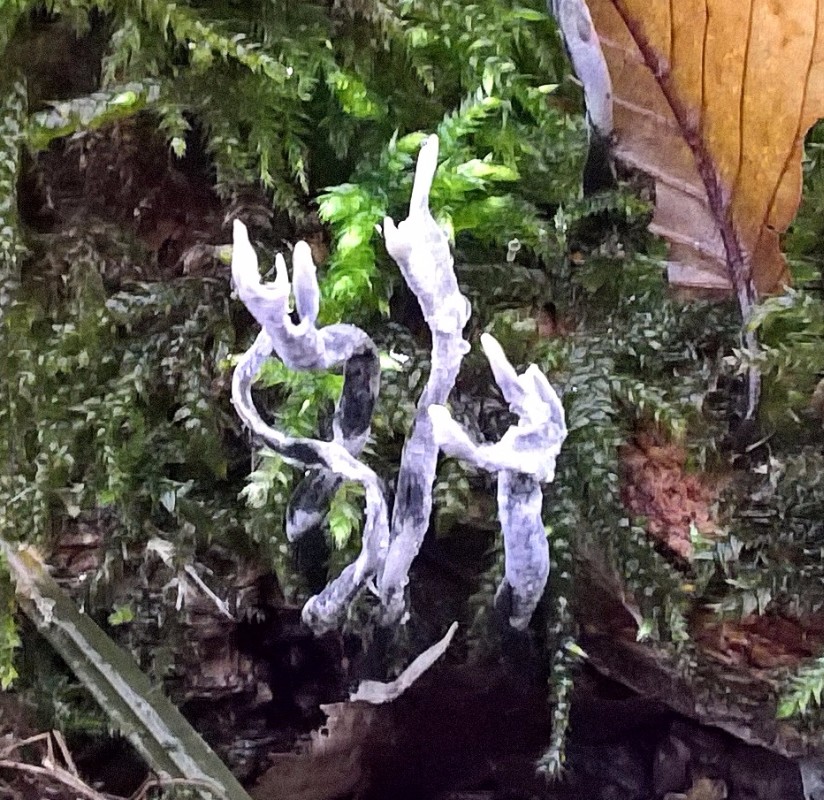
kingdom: Fungi
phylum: Ascomycota
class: Sordariomycetes
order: Xylariales
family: Xylariaceae
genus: Xylaria
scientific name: Xylaria hypoxylon
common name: grenet stødsvamp
